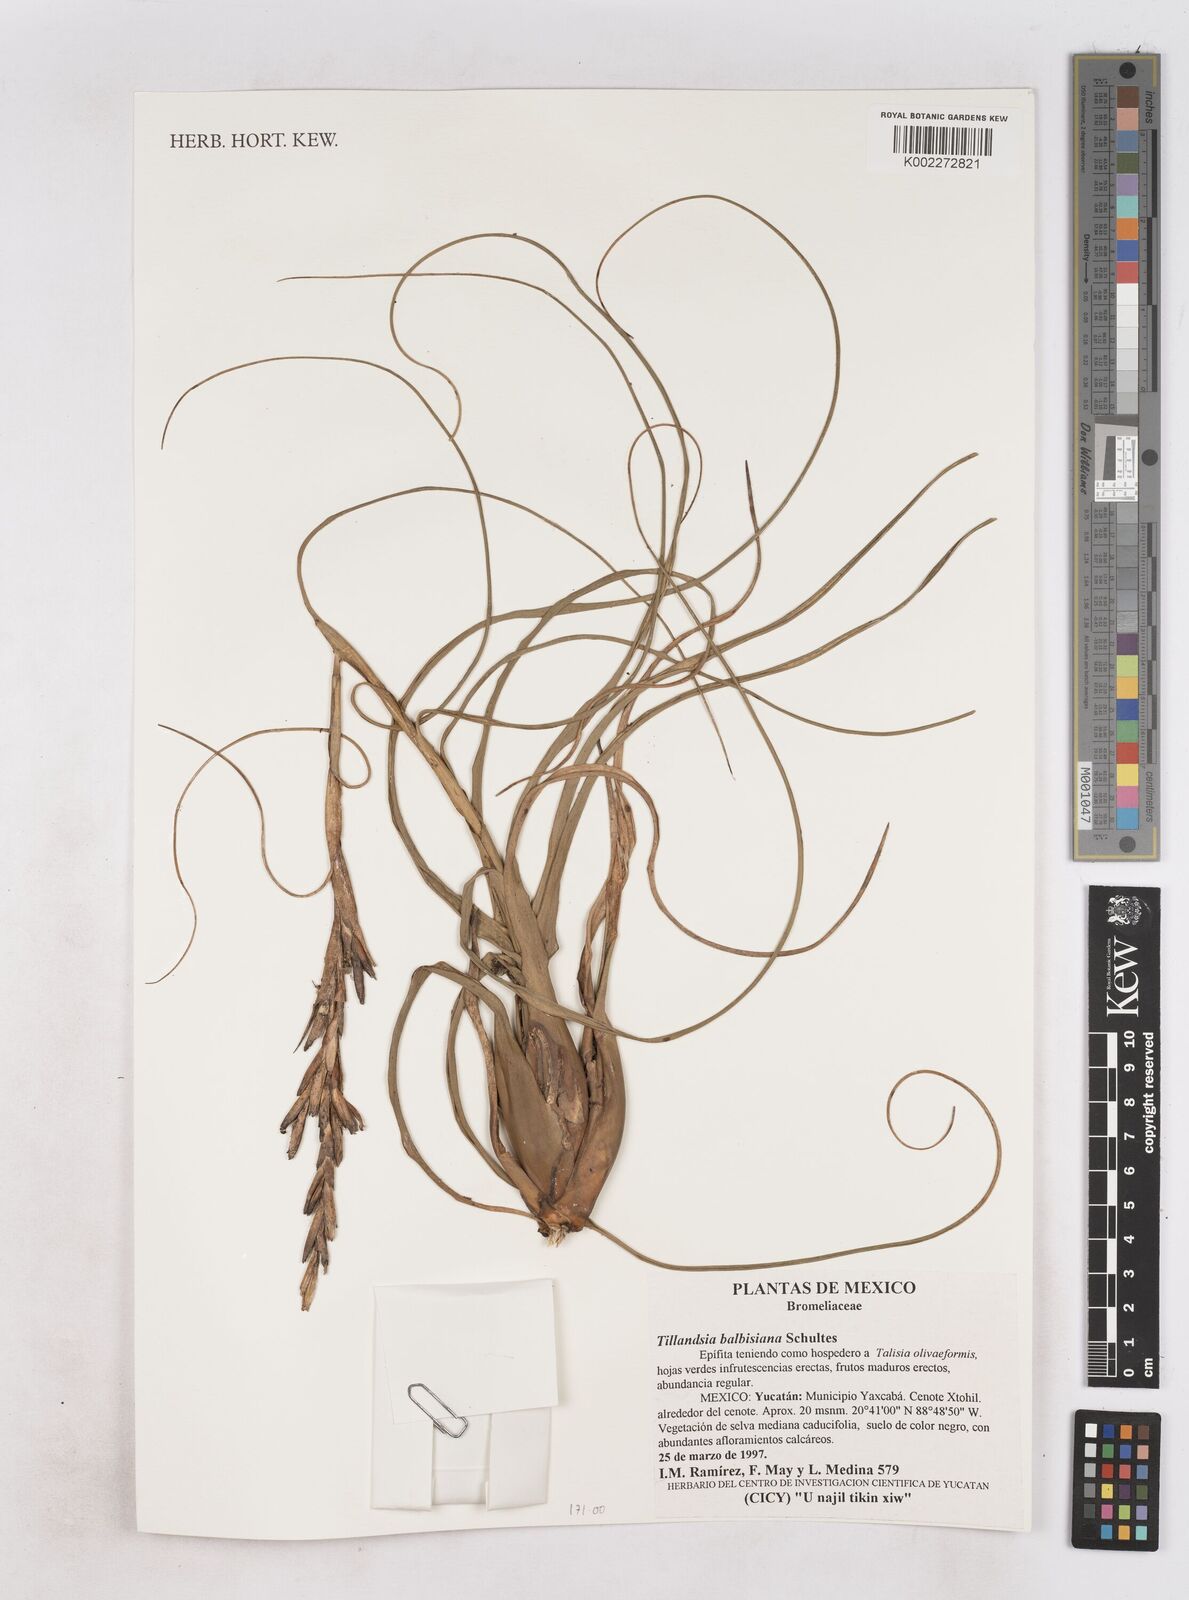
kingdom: Plantae
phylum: Tracheophyta
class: Liliopsida
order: Poales
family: Bromeliaceae
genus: Tillandsia
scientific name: Tillandsia balbisiana
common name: Northern needleleaf
